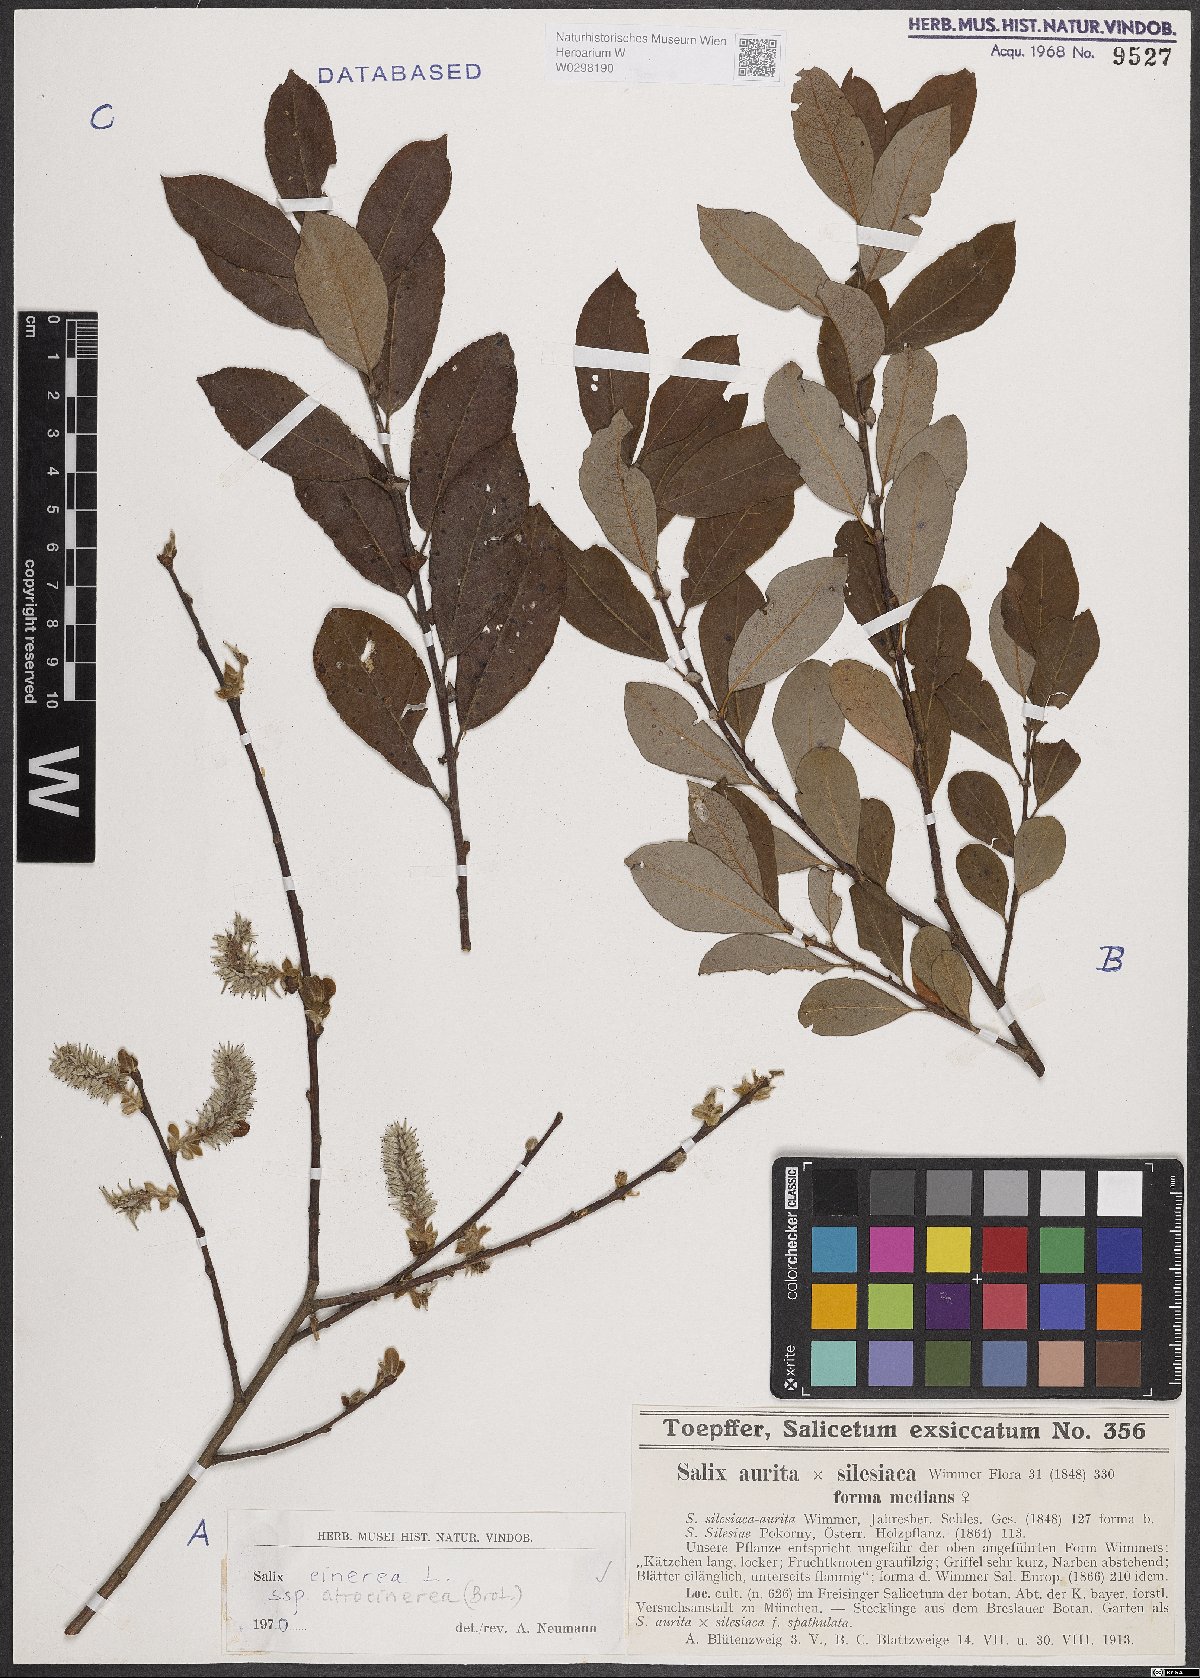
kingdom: Plantae
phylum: Tracheophyta
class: Magnoliopsida
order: Malpighiales
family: Salicaceae
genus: Salix
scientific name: Salix atrocinerea
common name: Rusty willow
